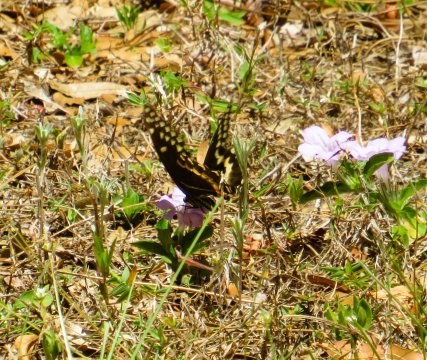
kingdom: Animalia
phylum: Arthropoda
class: Insecta
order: Lepidoptera
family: Papilionidae
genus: Pterourus
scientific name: Pterourus palamedes
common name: Palamedes Swallowtail
